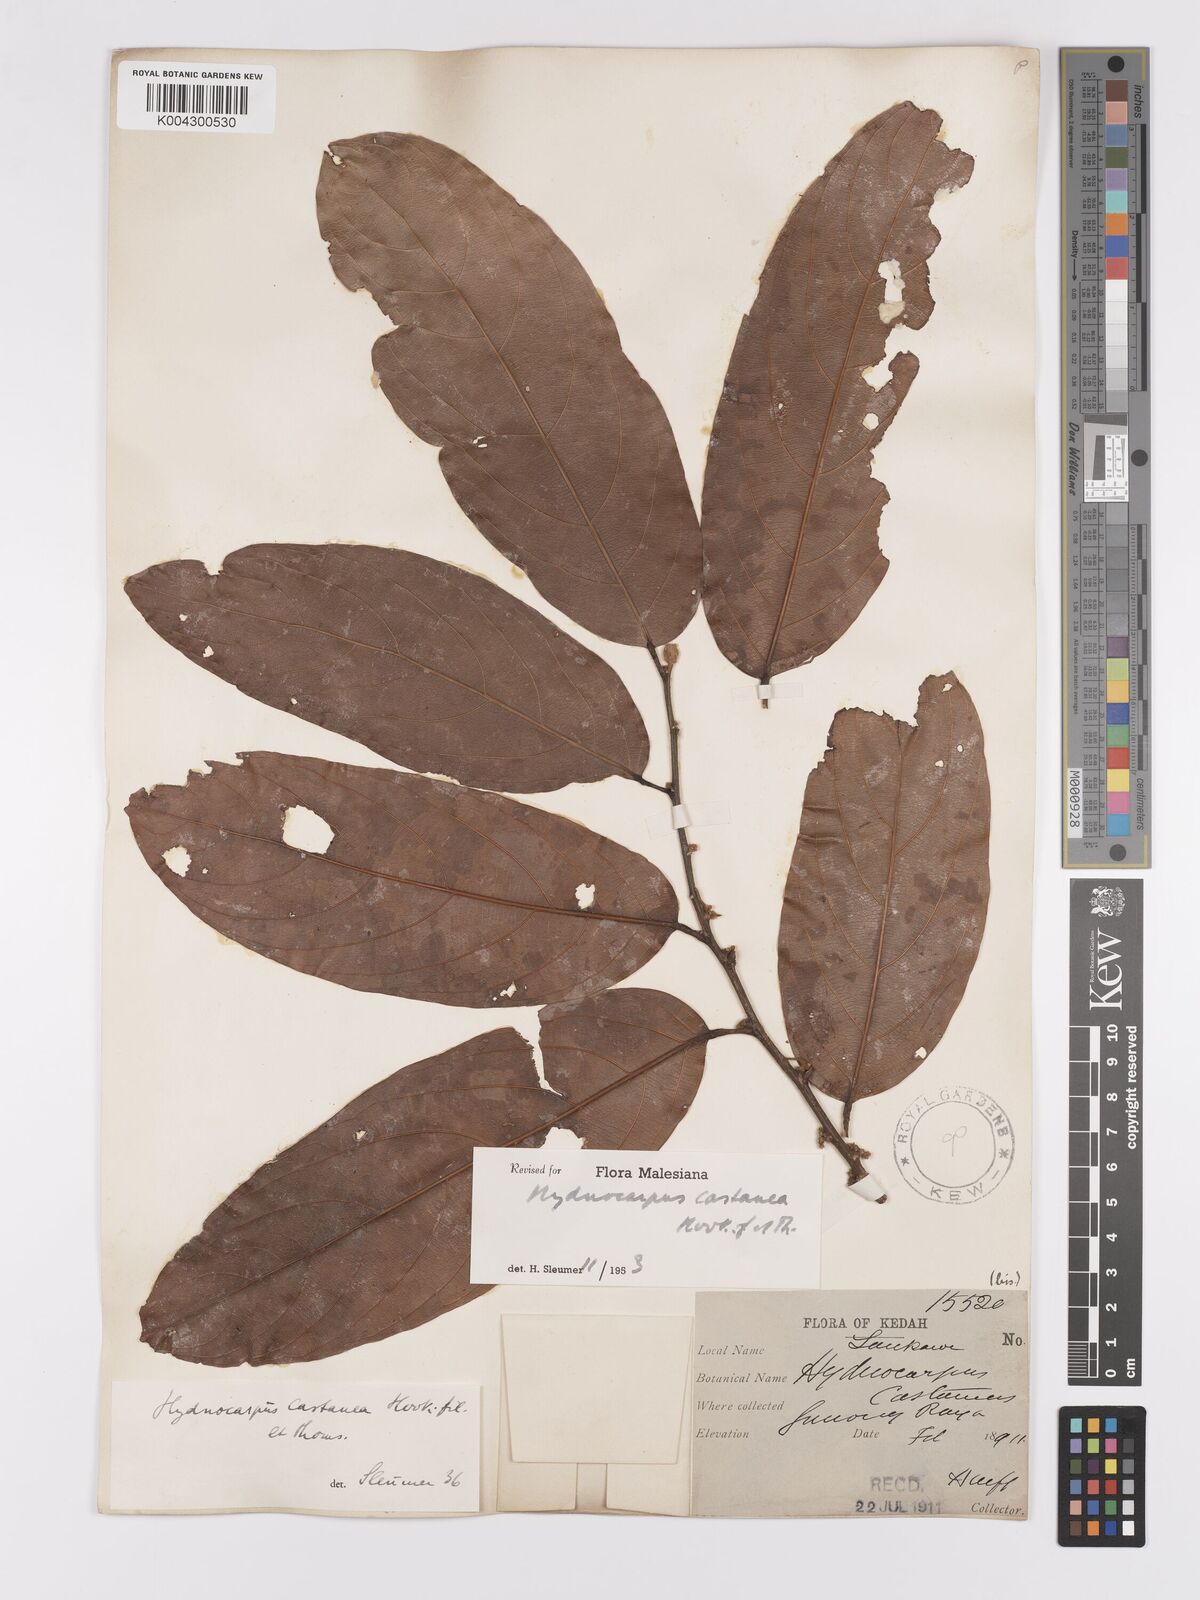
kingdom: Plantae
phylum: Tracheophyta
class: Magnoliopsida
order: Malpighiales
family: Achariaceae
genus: Hydnocarpus
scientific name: Hydnocarpus castaneus
